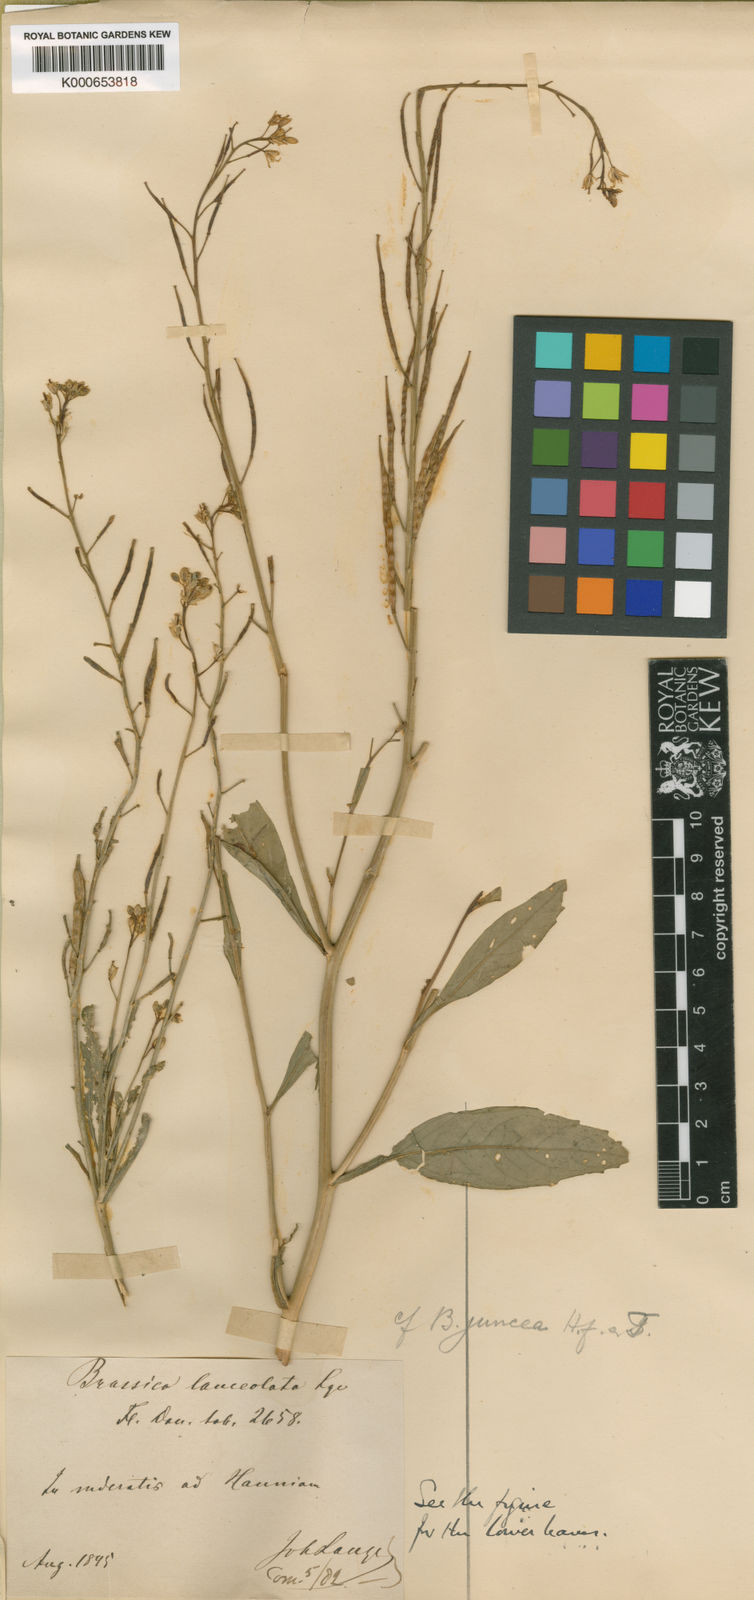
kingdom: Plantae
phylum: Tracheophyta
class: Magnoliopsida
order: Brassicales
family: Brassicaceae
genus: Brassica
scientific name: Brassica
